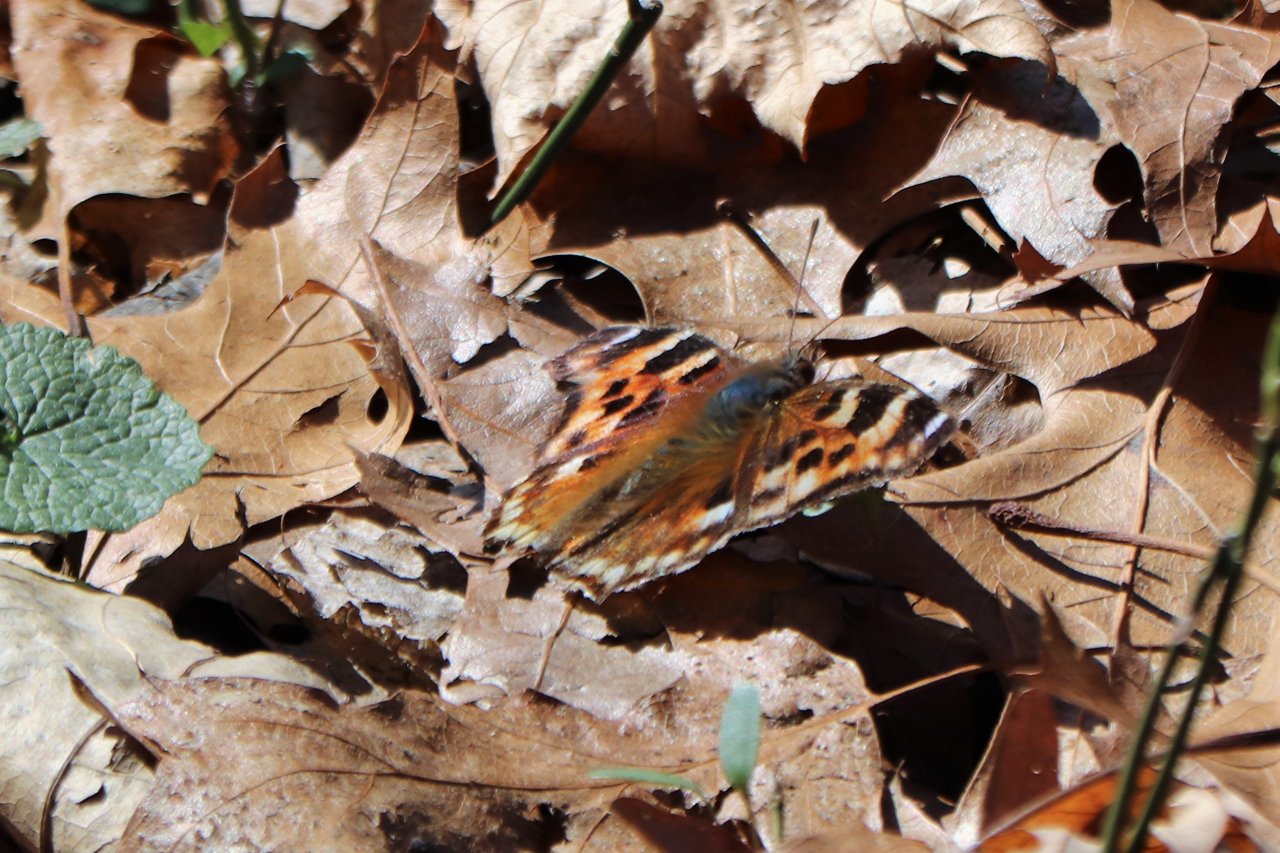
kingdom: Animalia
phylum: Arthropoda
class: Insecta
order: Lepidoptera
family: Nymphalidae
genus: Polygonia
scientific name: Polygonia vaualbum
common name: Compton Tortoiseshell
